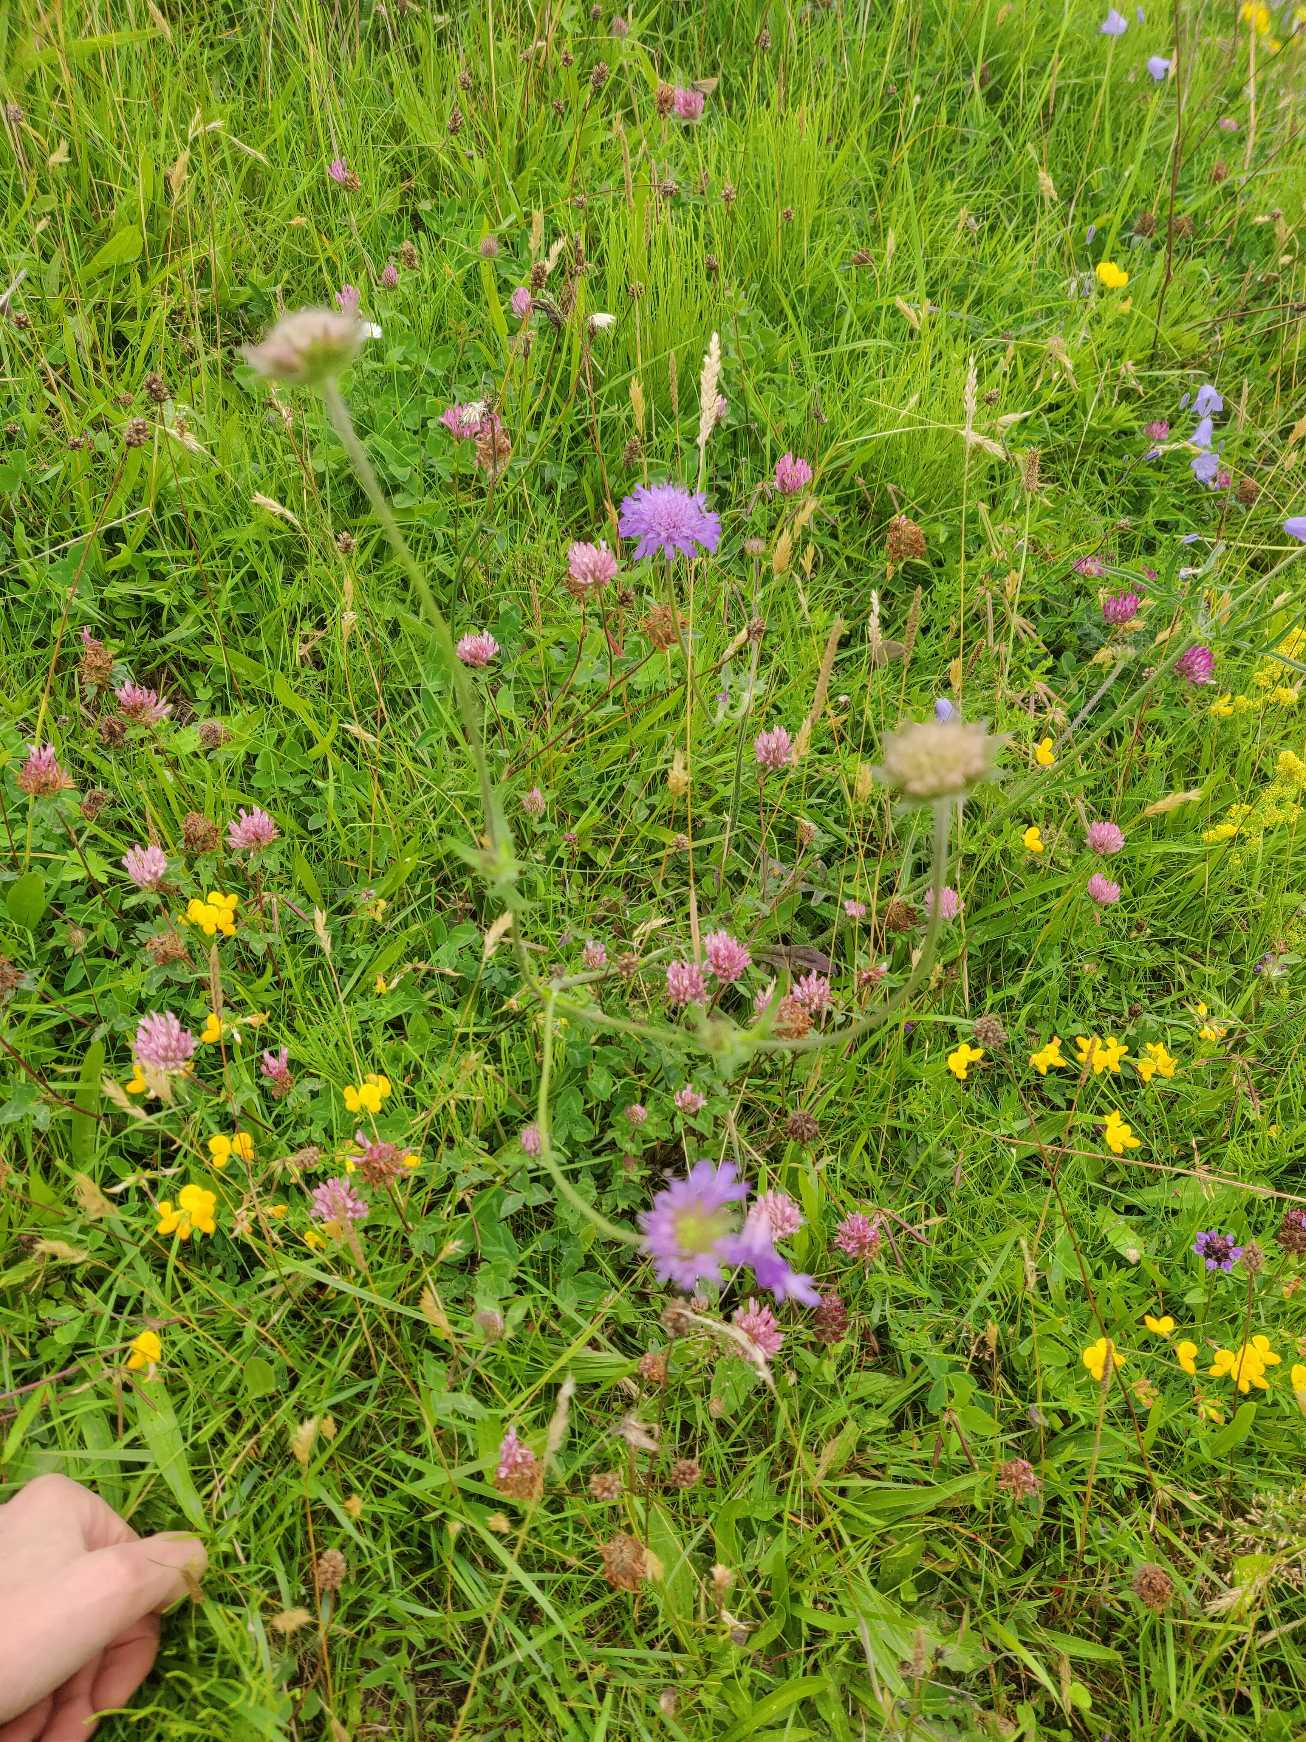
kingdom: Plantae
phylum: Tracheophyta
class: Magnoliopsida
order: Dipsacales
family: Caprifoliaceae
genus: Knautia
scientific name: Knautia arvensis
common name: Blåhat
